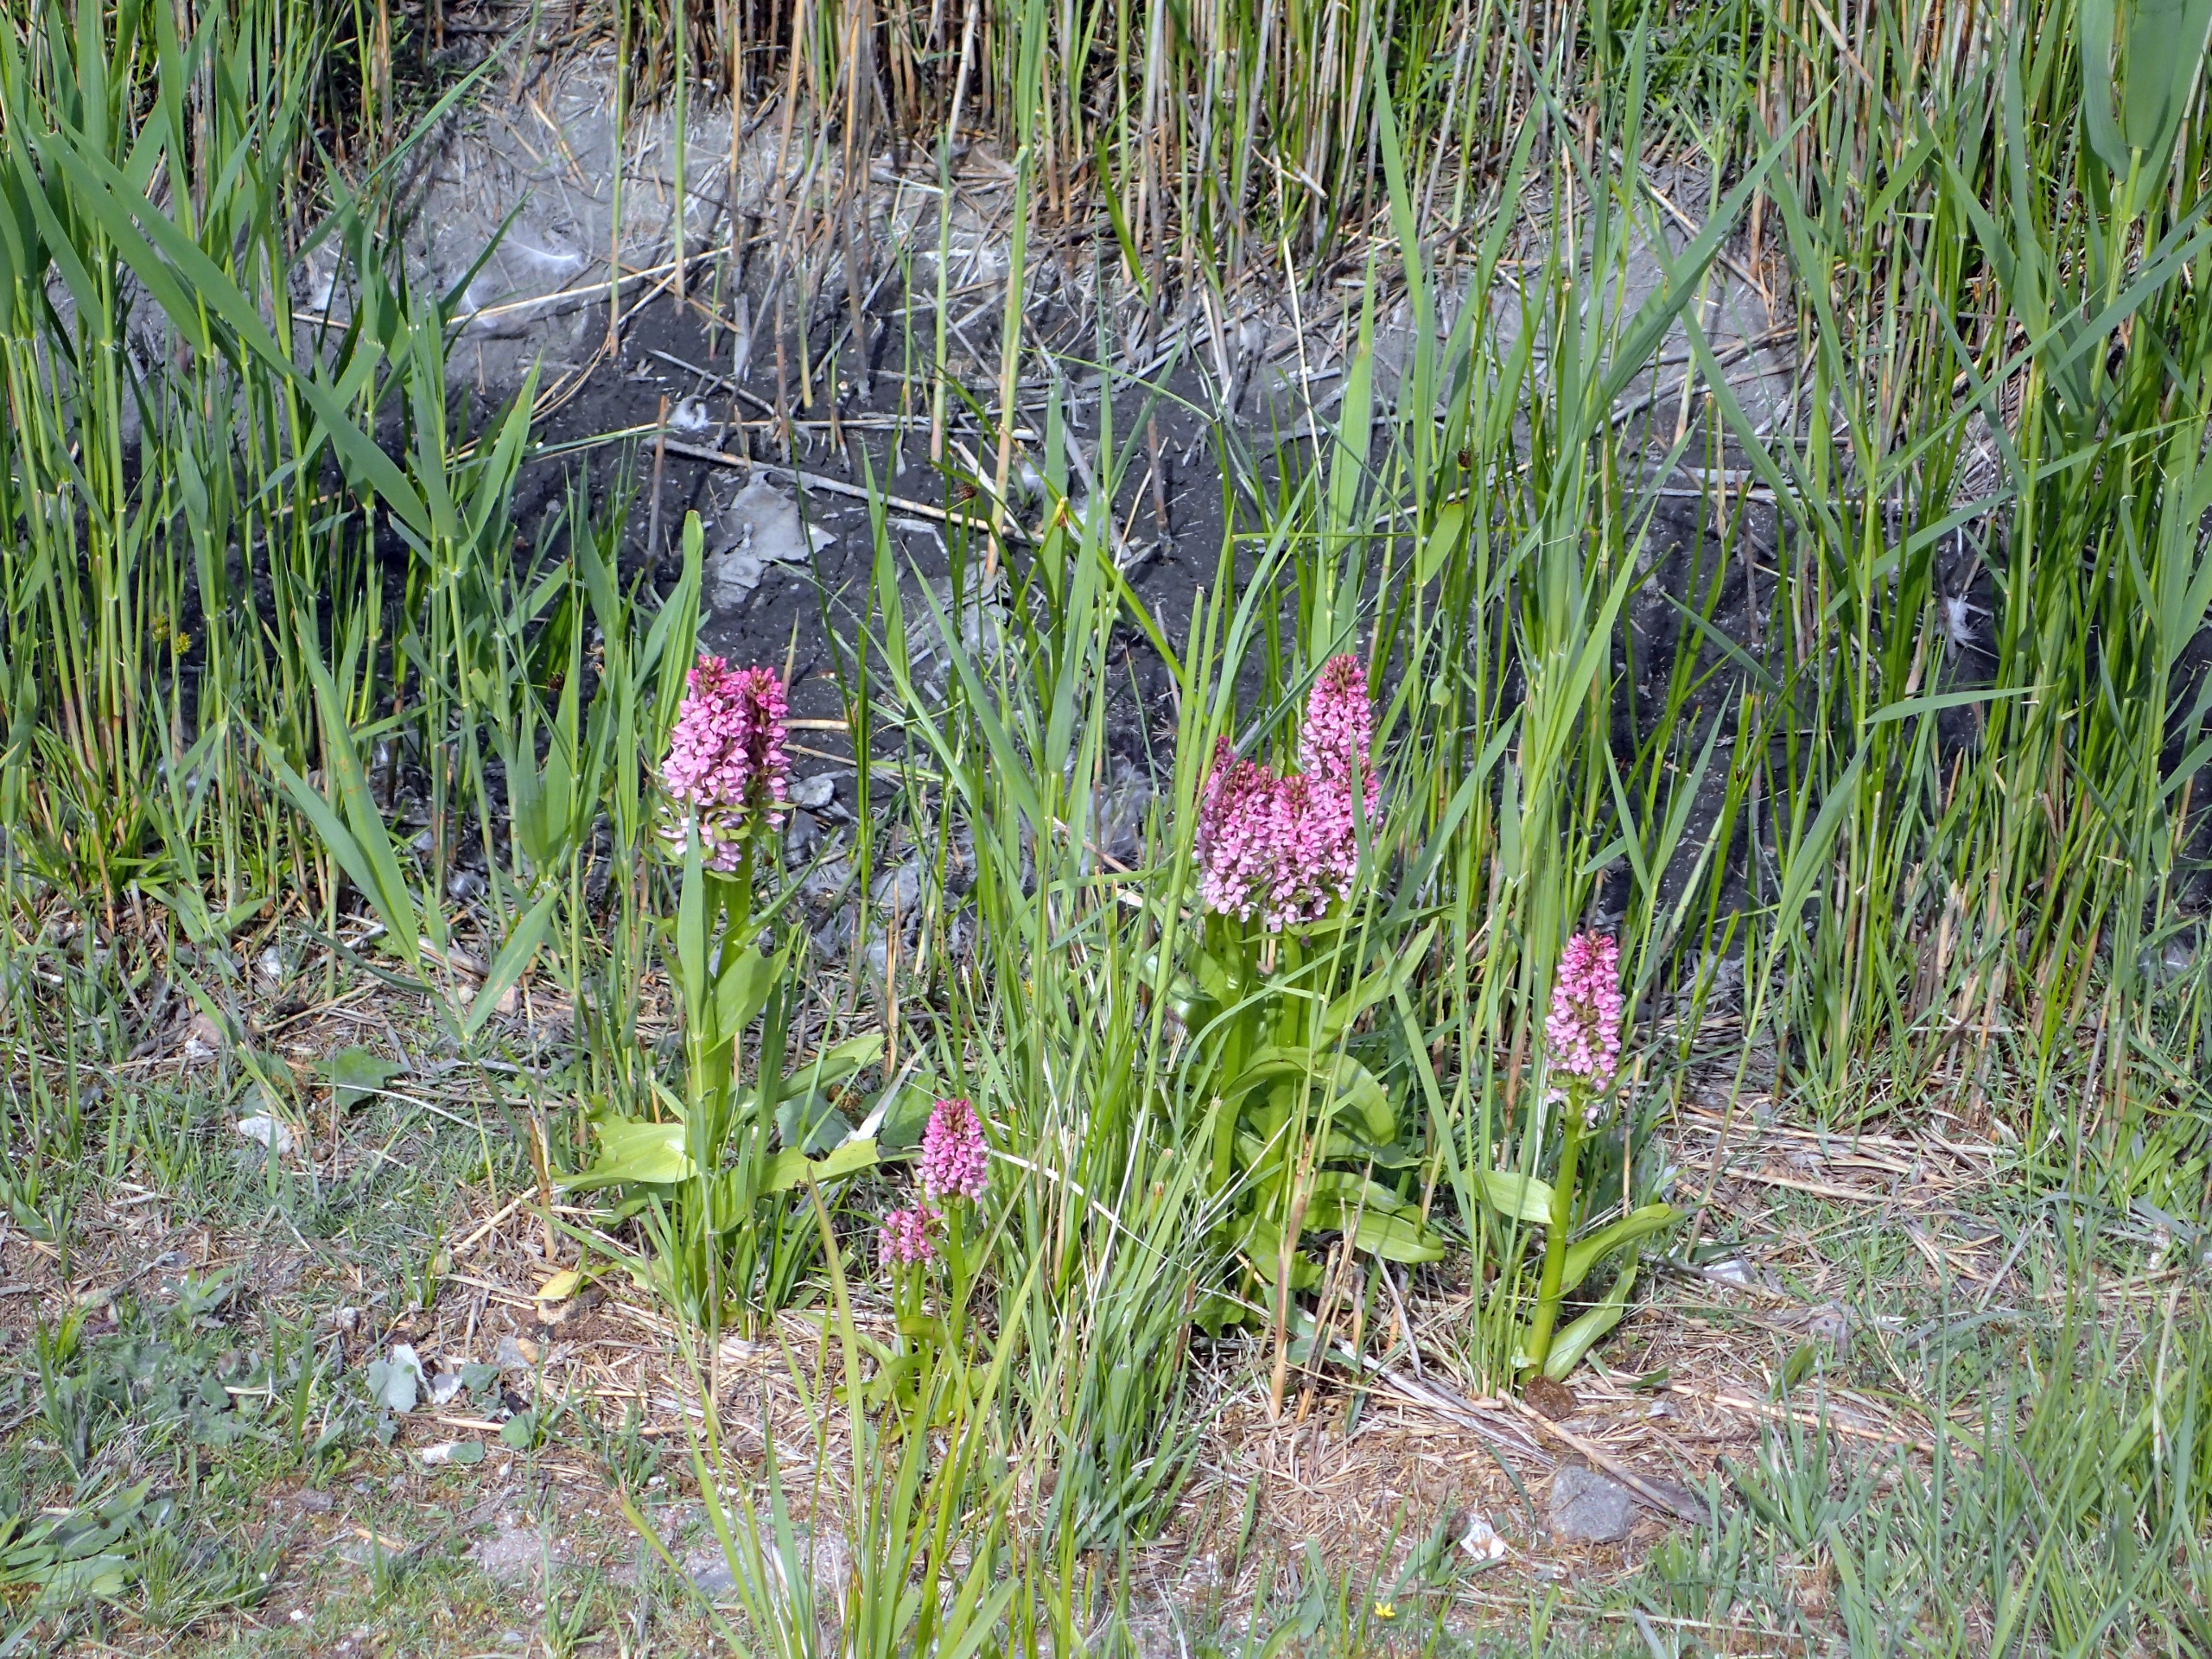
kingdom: Plantae
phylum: Tracheophyta
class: Liliopsida
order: Asparagales
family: Orchidaceae
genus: Dactylorhiza
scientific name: Dactylorhiza incarnata
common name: Kødfarvet gøgeurt
